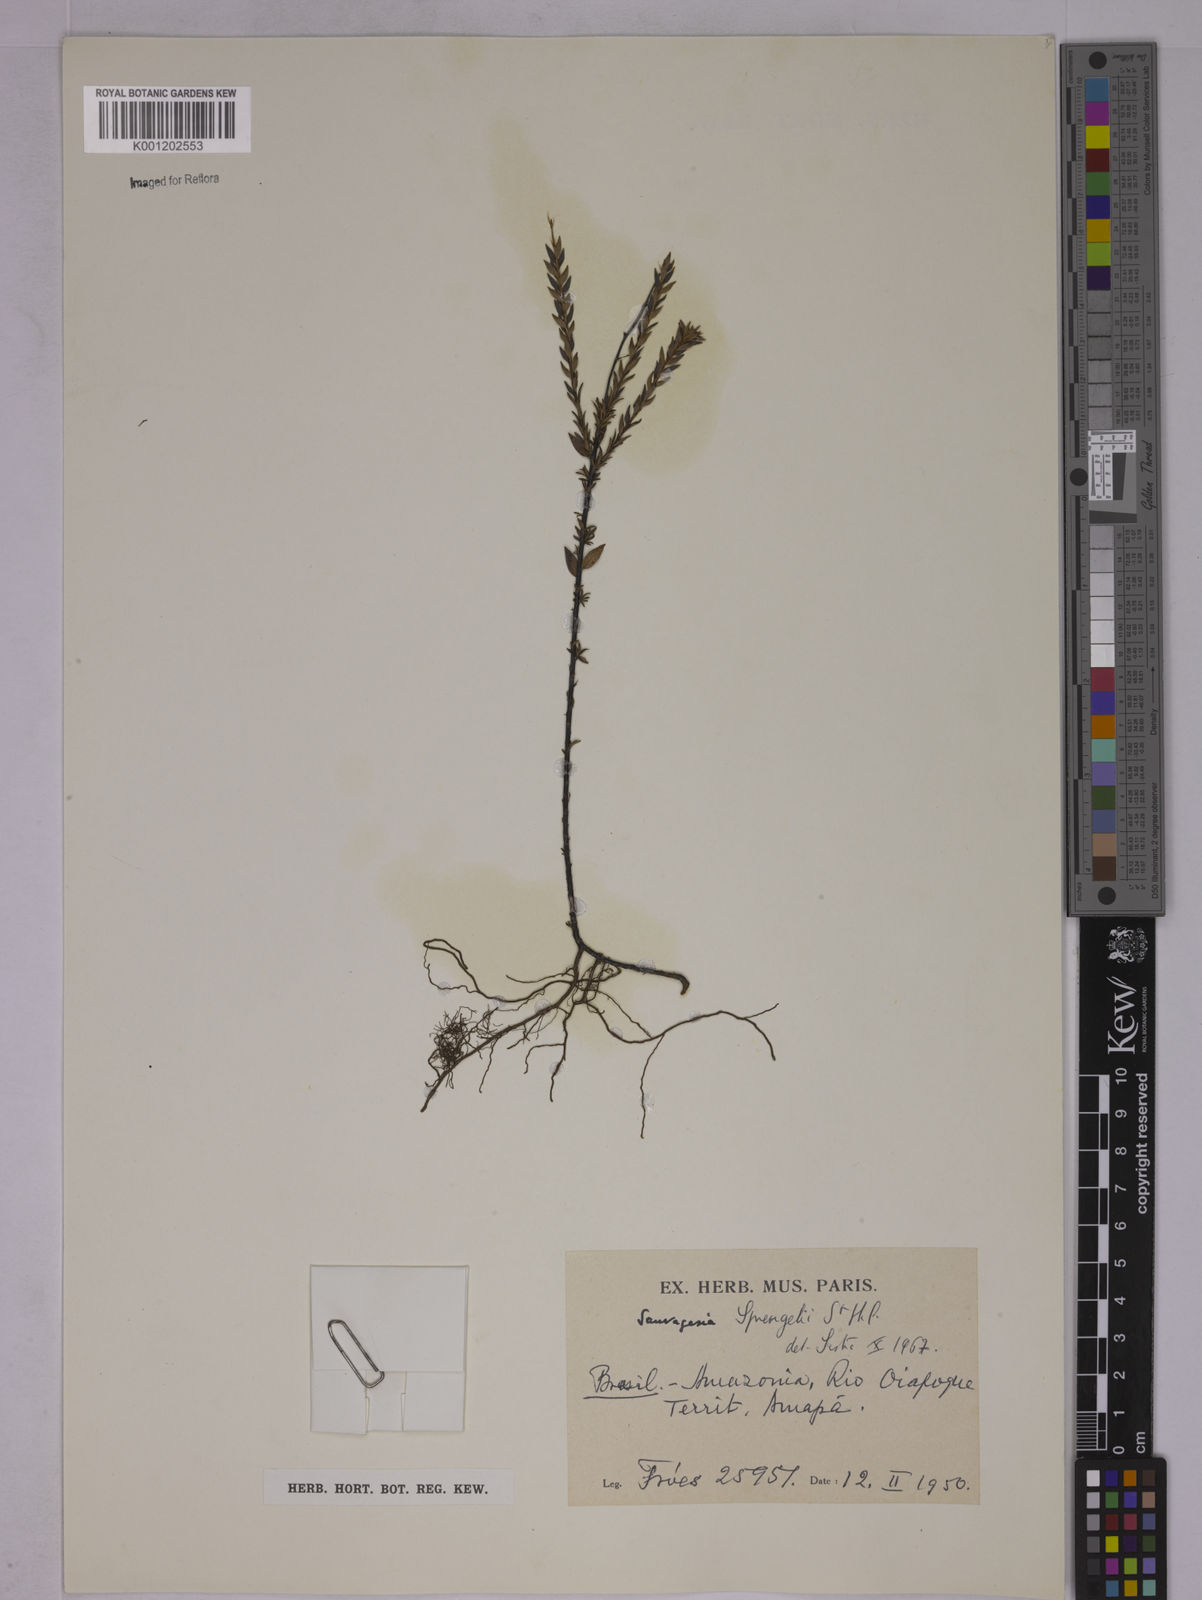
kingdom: Plantae
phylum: Tracheophyta
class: Magnoliopsida
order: Malpighiales
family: Ochnaceae
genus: Sauvagesia
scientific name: Sauvagesia sprengelii
